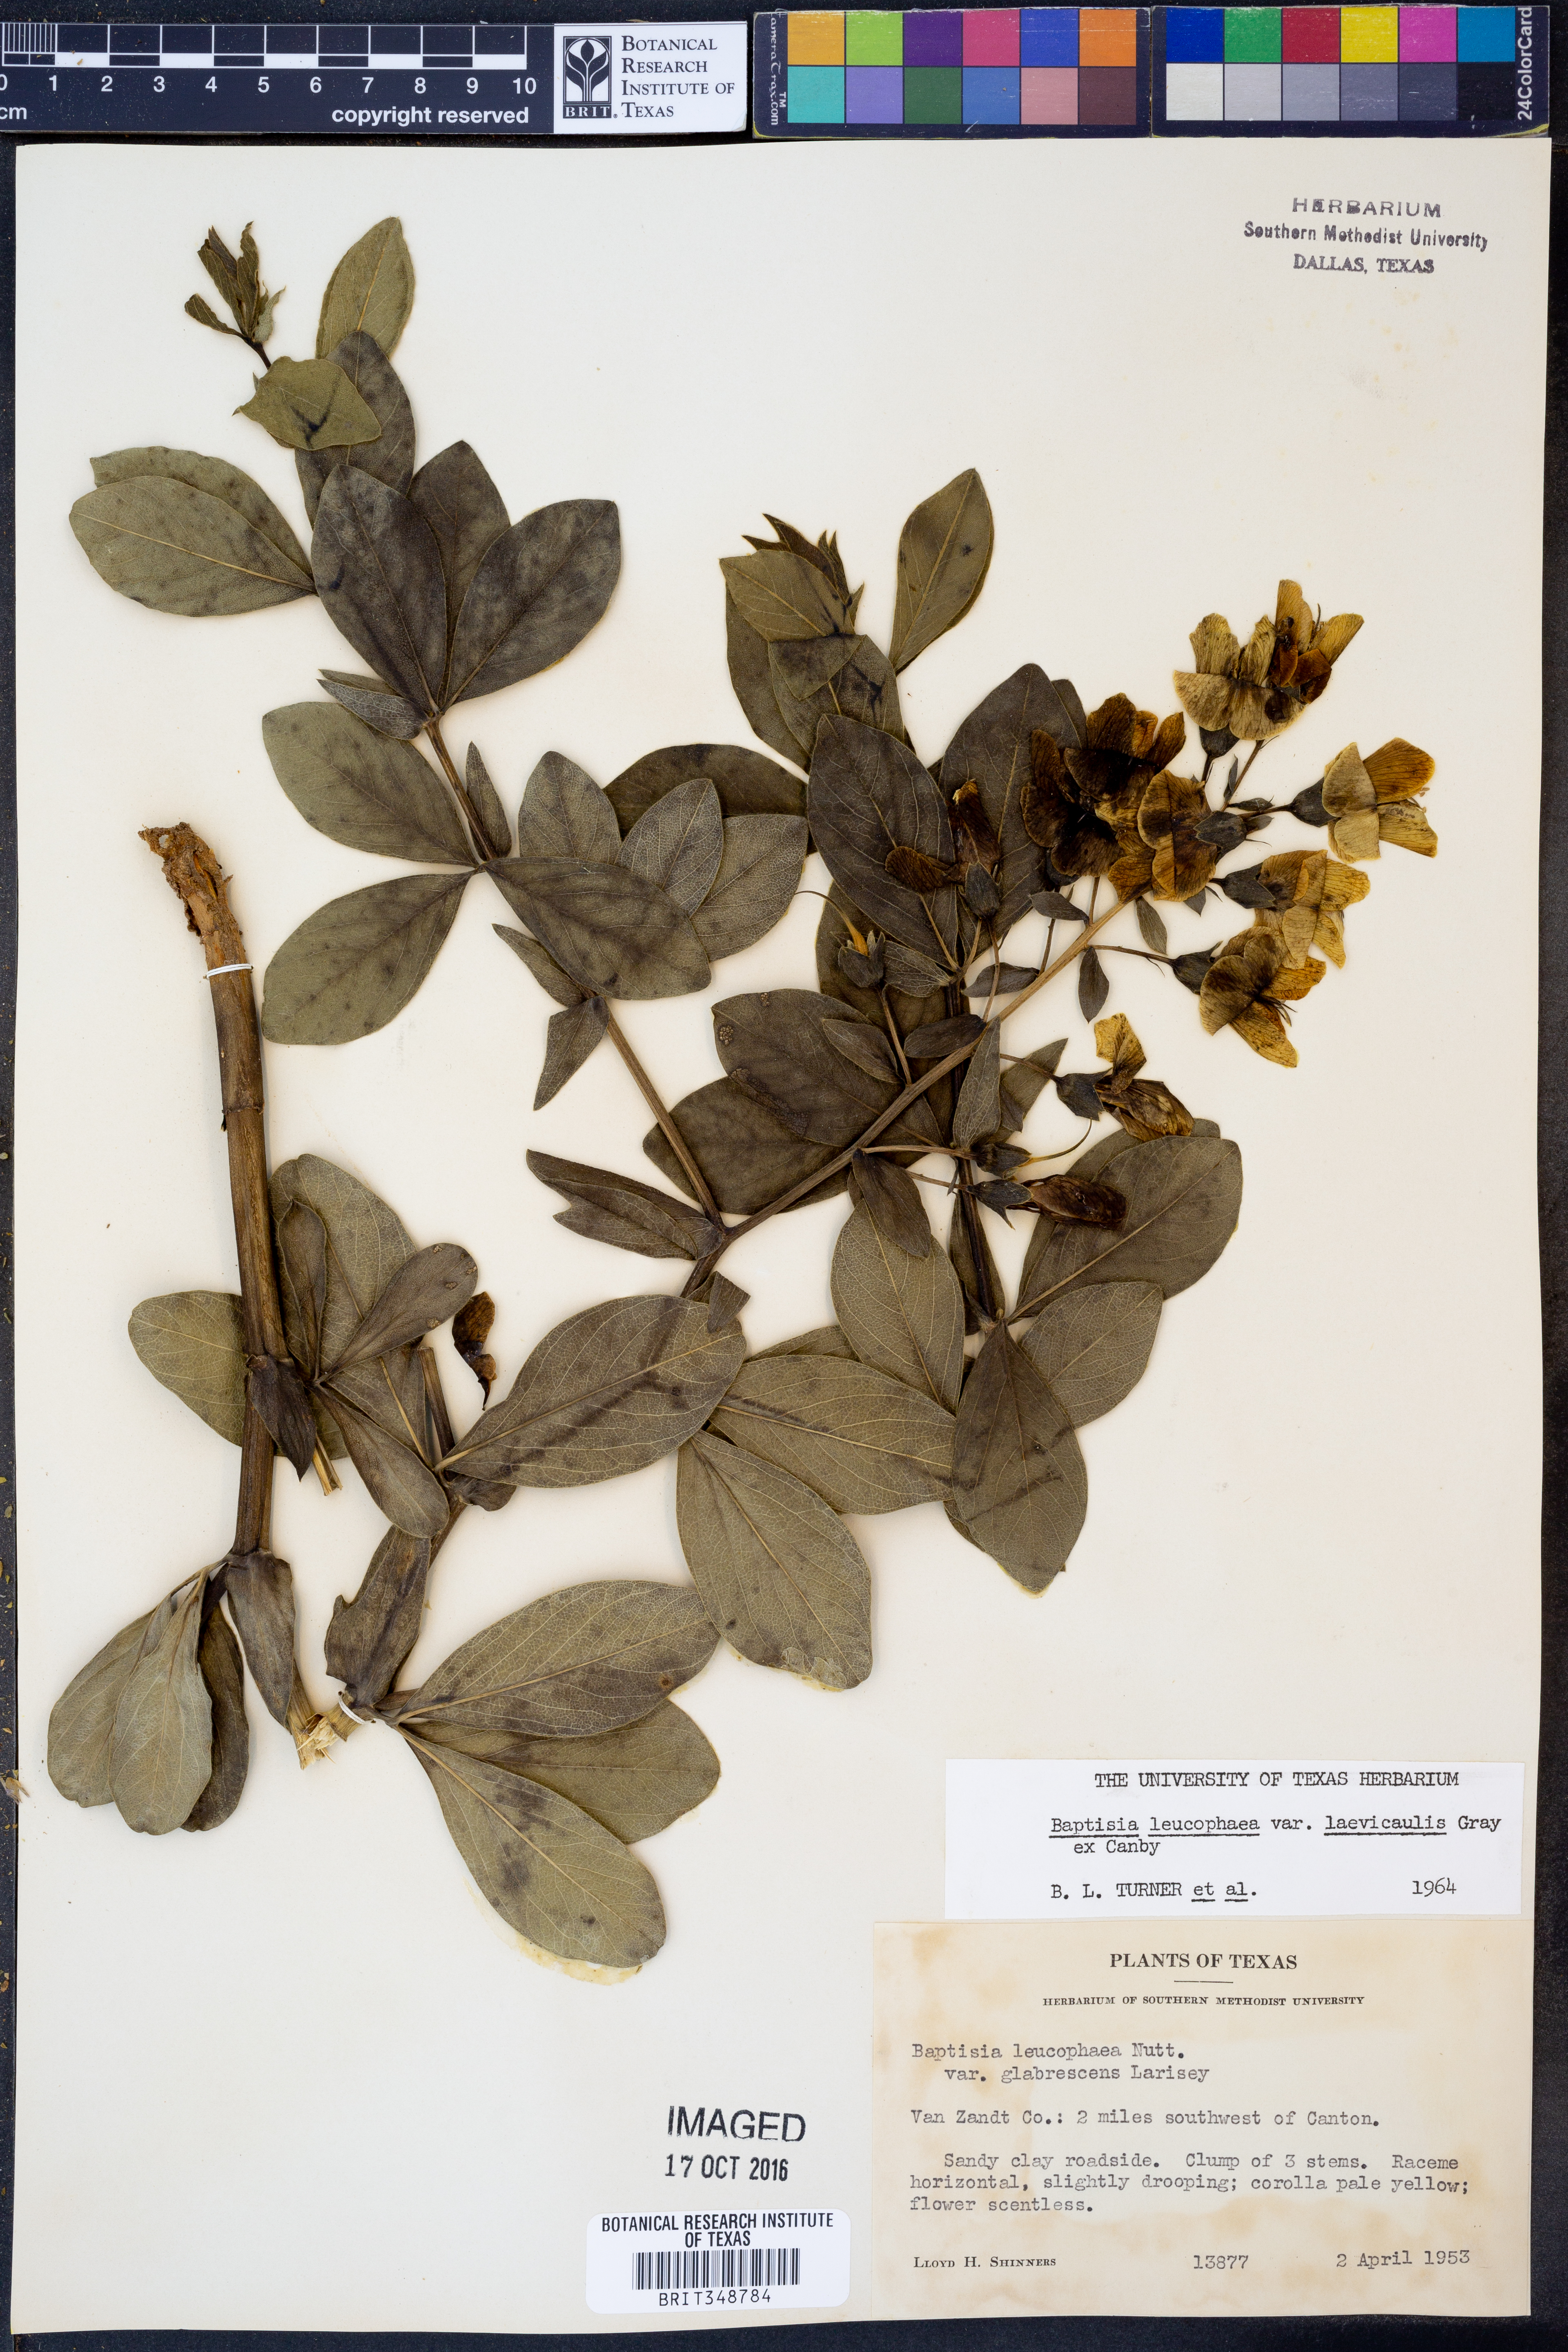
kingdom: Plantae
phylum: Tracheophyta
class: Magnoliopsida
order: Fabales
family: Fabaceae
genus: Baptisia
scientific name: Baptisia bracteata
